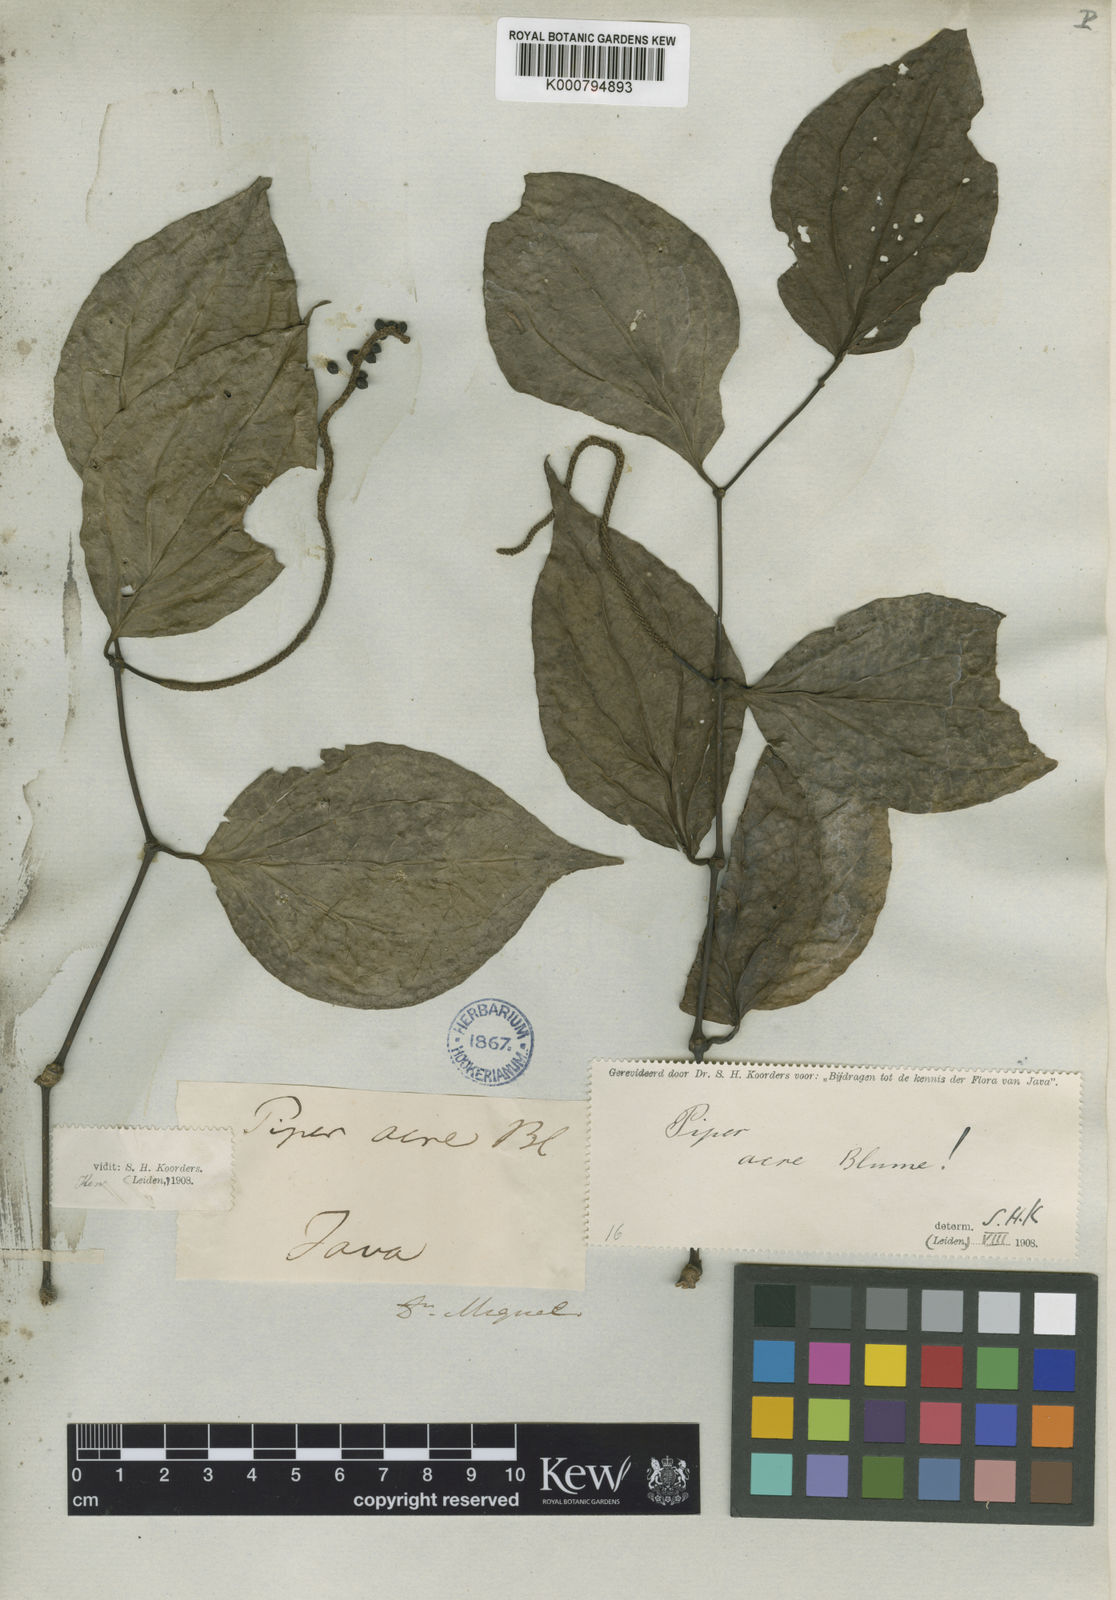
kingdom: Plantae
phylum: Tracheophyta
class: Magnoliopsida
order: Piperales
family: Piperaceae
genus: Piper
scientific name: Piper acre
